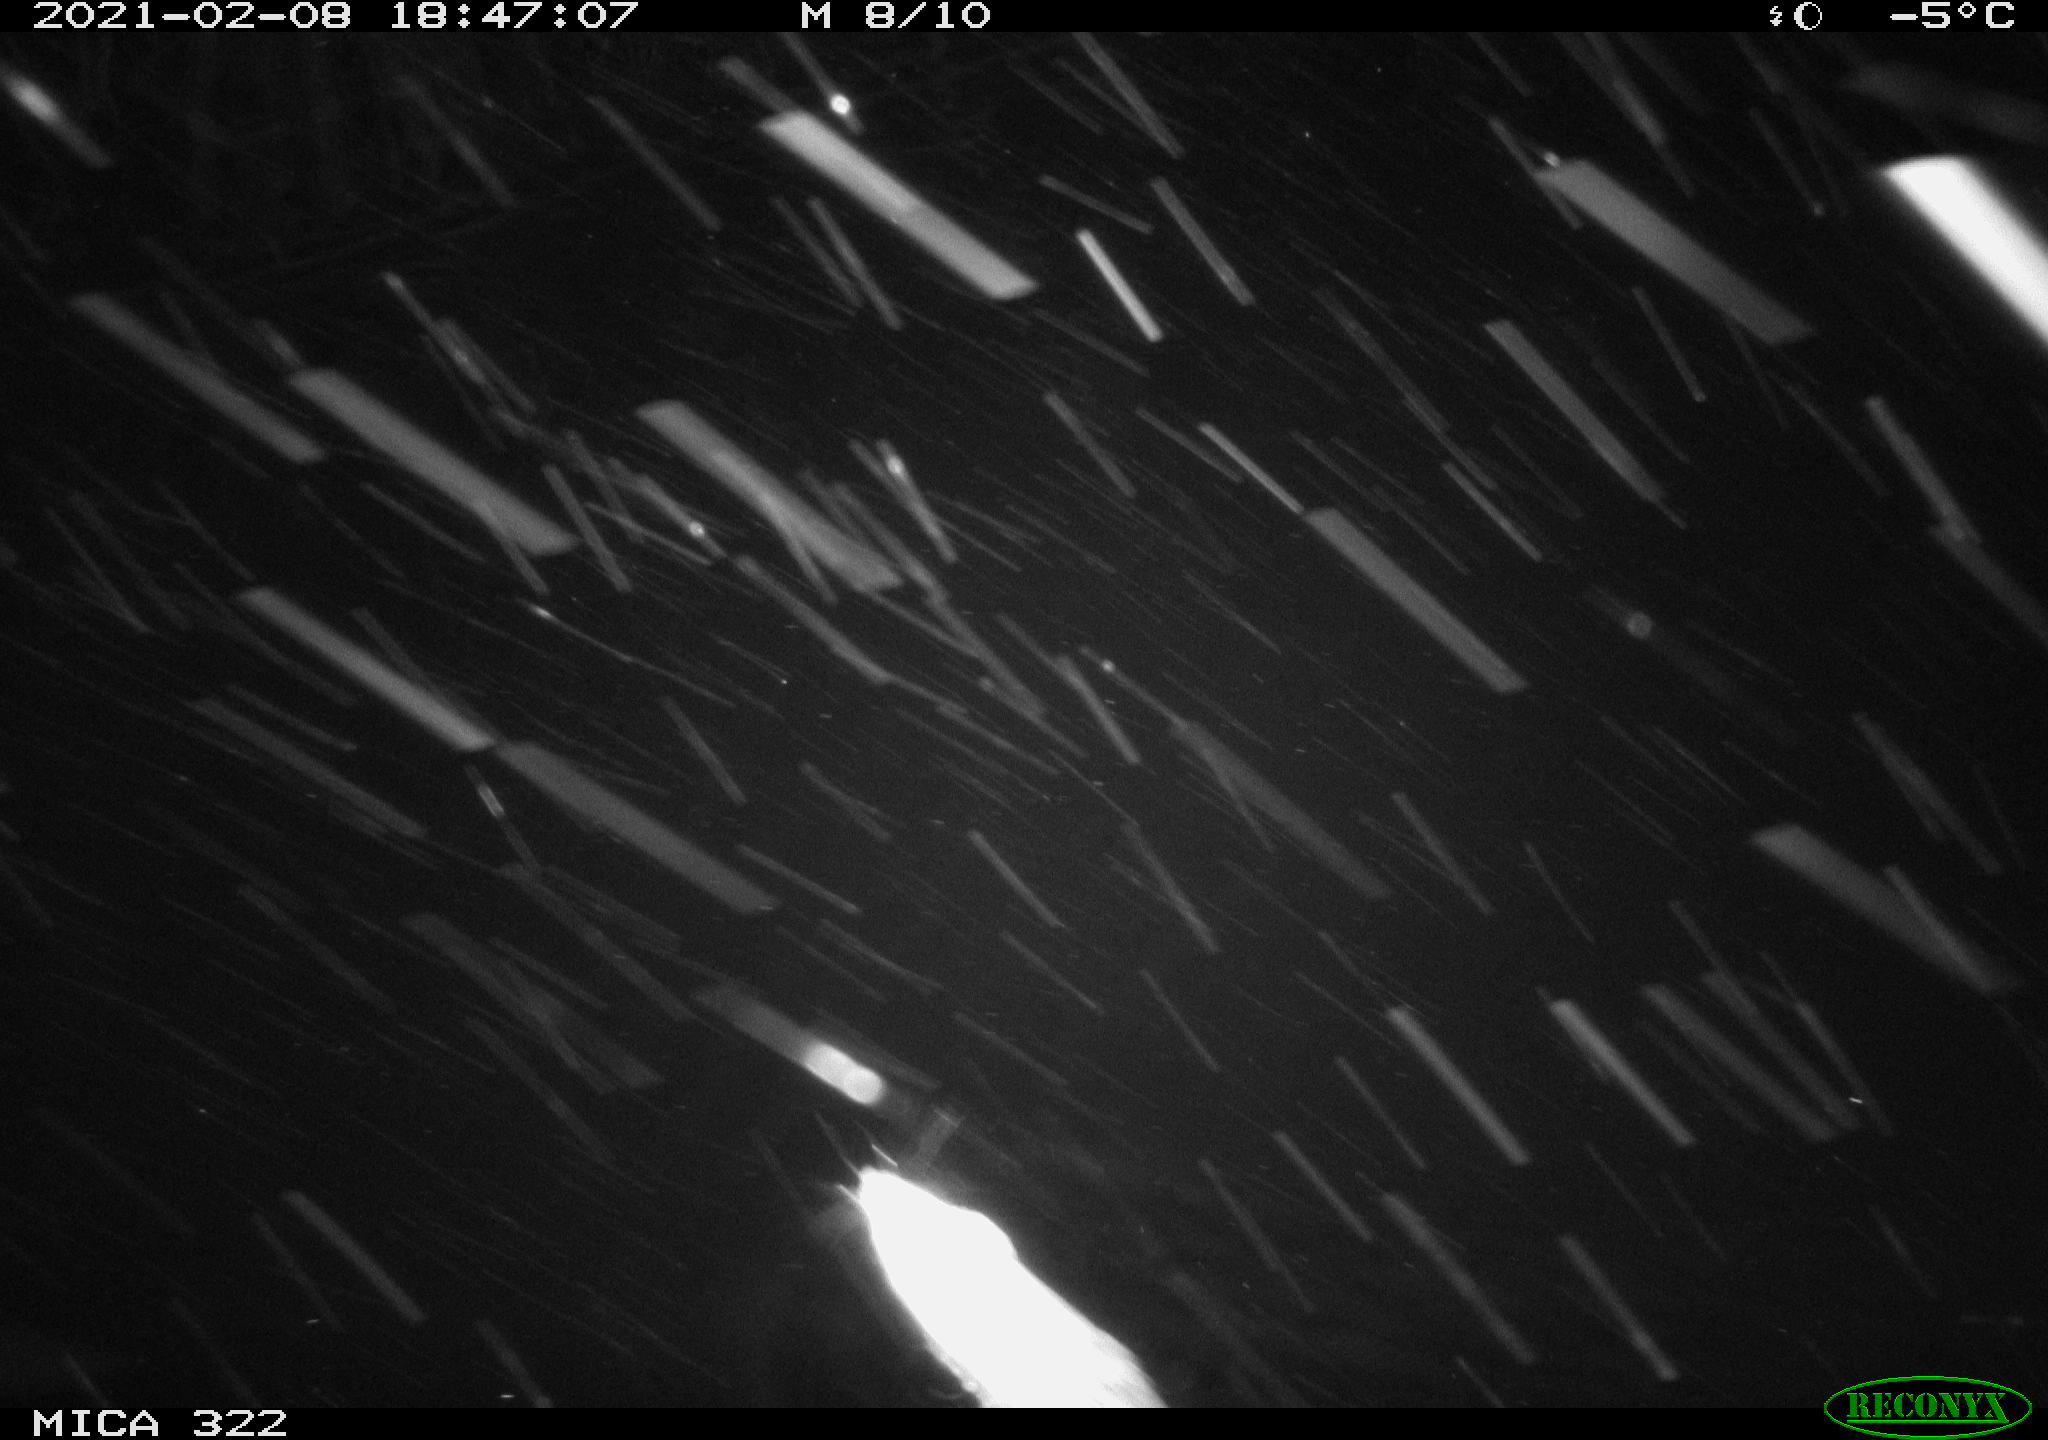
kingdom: Animalia
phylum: Chordata
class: Mammalia
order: Rodentia
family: Muridae
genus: Rattus
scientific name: Rattus norvegicus
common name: Brown rat
